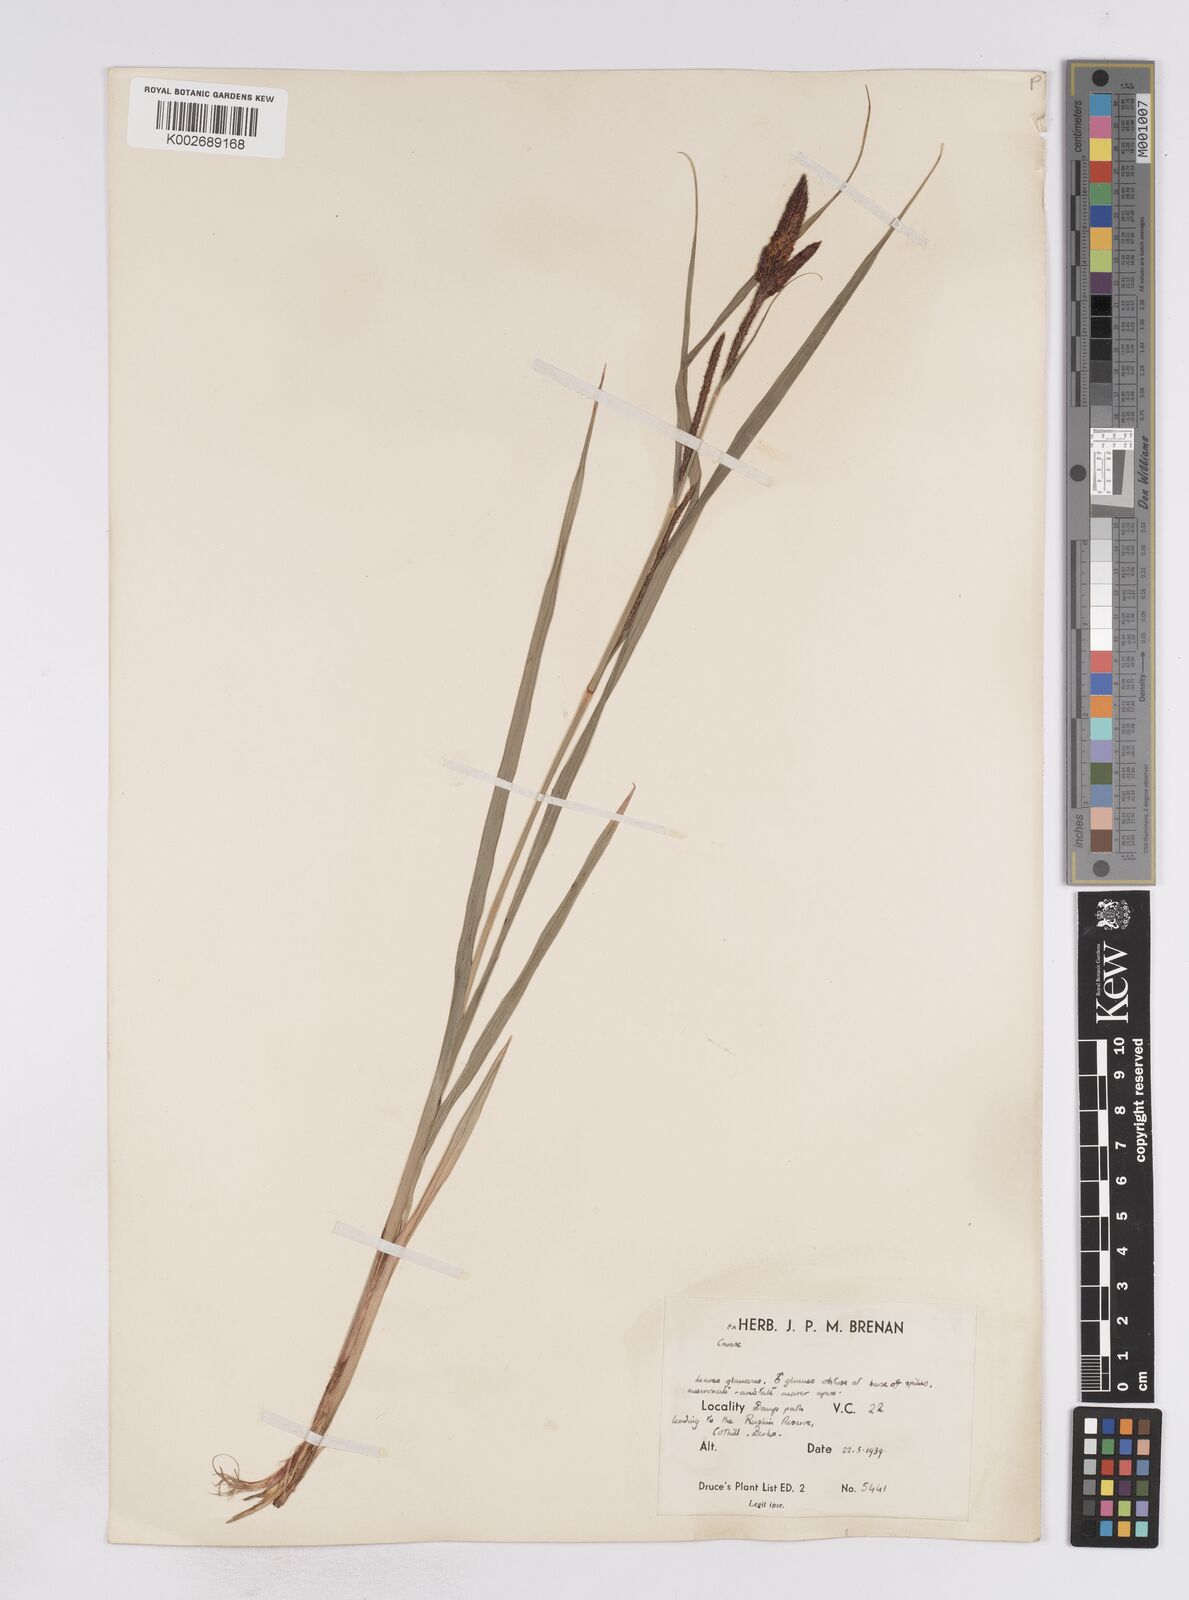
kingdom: Plantae
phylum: Tracheophyta
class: Liliopsida
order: Poales
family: Cyperaceae
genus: Carex
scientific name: Carex flacca
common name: Glaucous sedge
